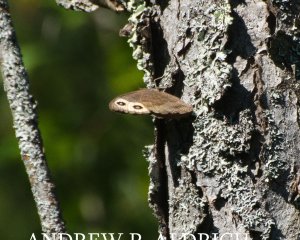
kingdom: Animalia
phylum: Arthropoda
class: Insecta
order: Lepidoptera
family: Nymphalidae
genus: Cercyonis
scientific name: Cercyonis pegala
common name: Common Wood-Nymph
